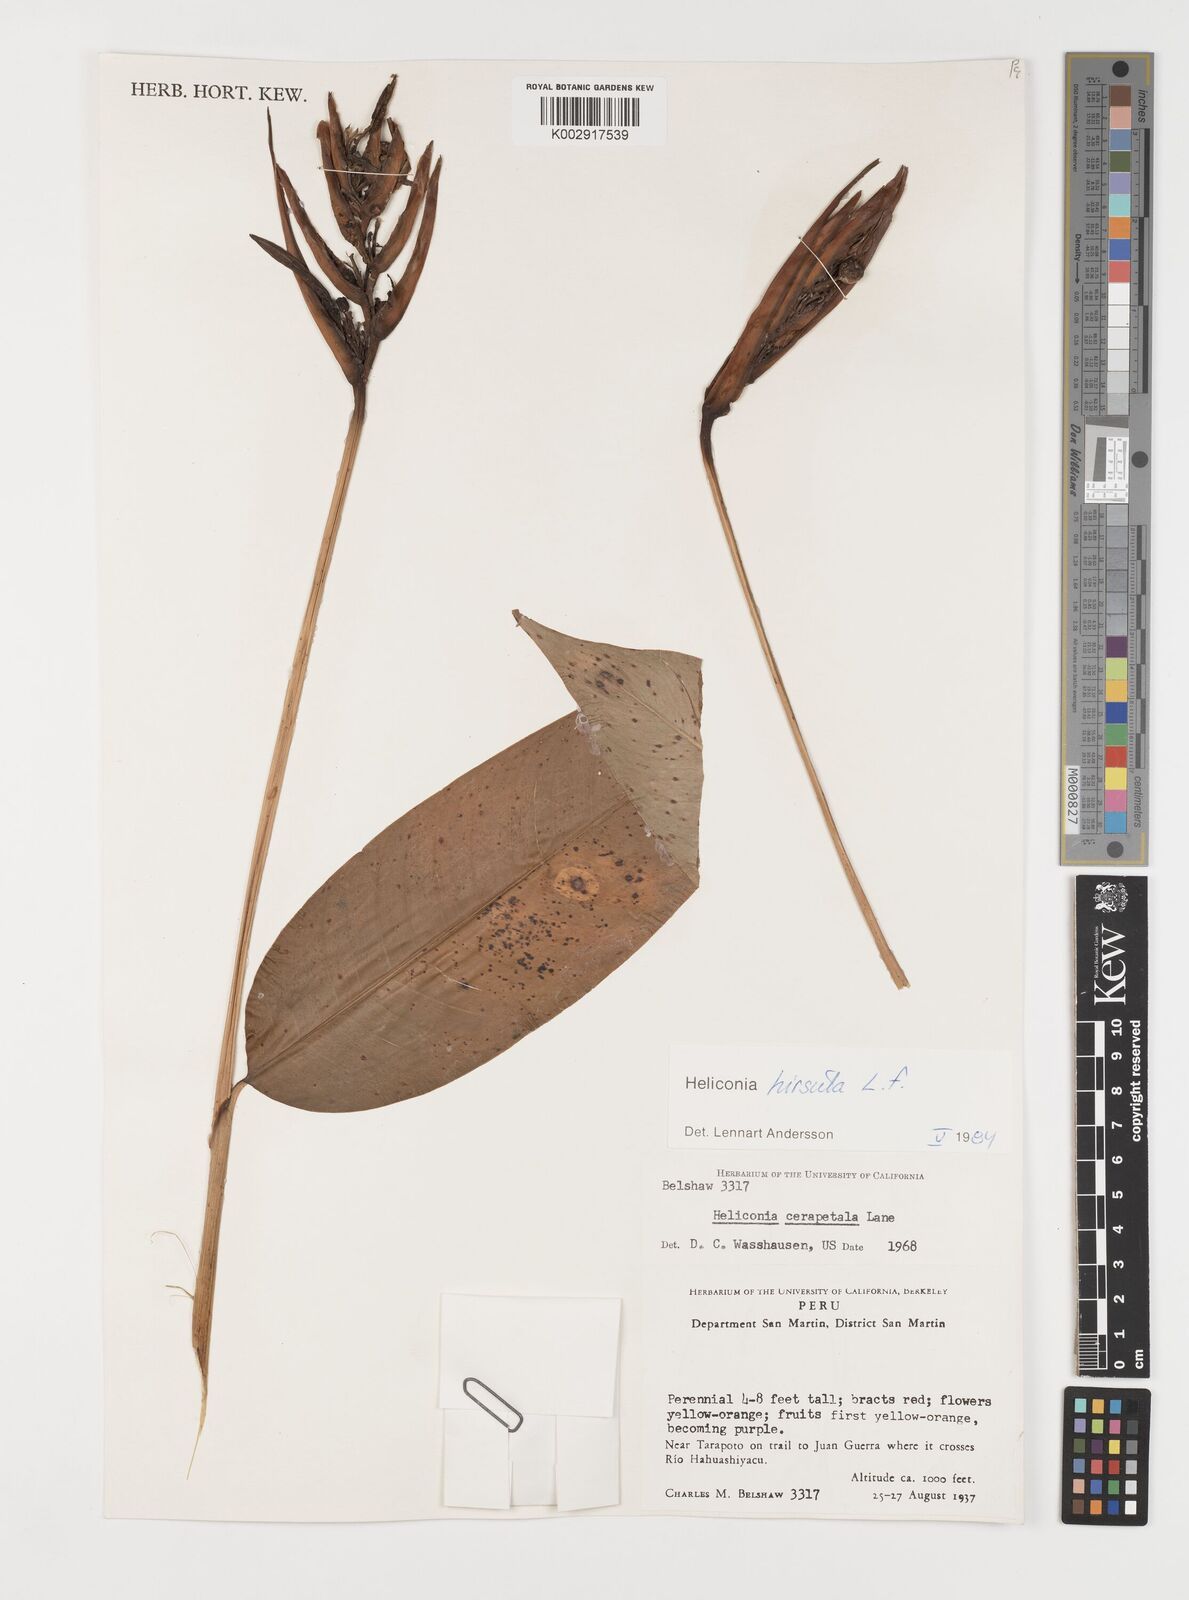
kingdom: Plantae
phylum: Tracheophyta
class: Liliopsida
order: Zingiberales
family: Heliconiaceae
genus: Heliconia
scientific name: Heliconia hirsuta
